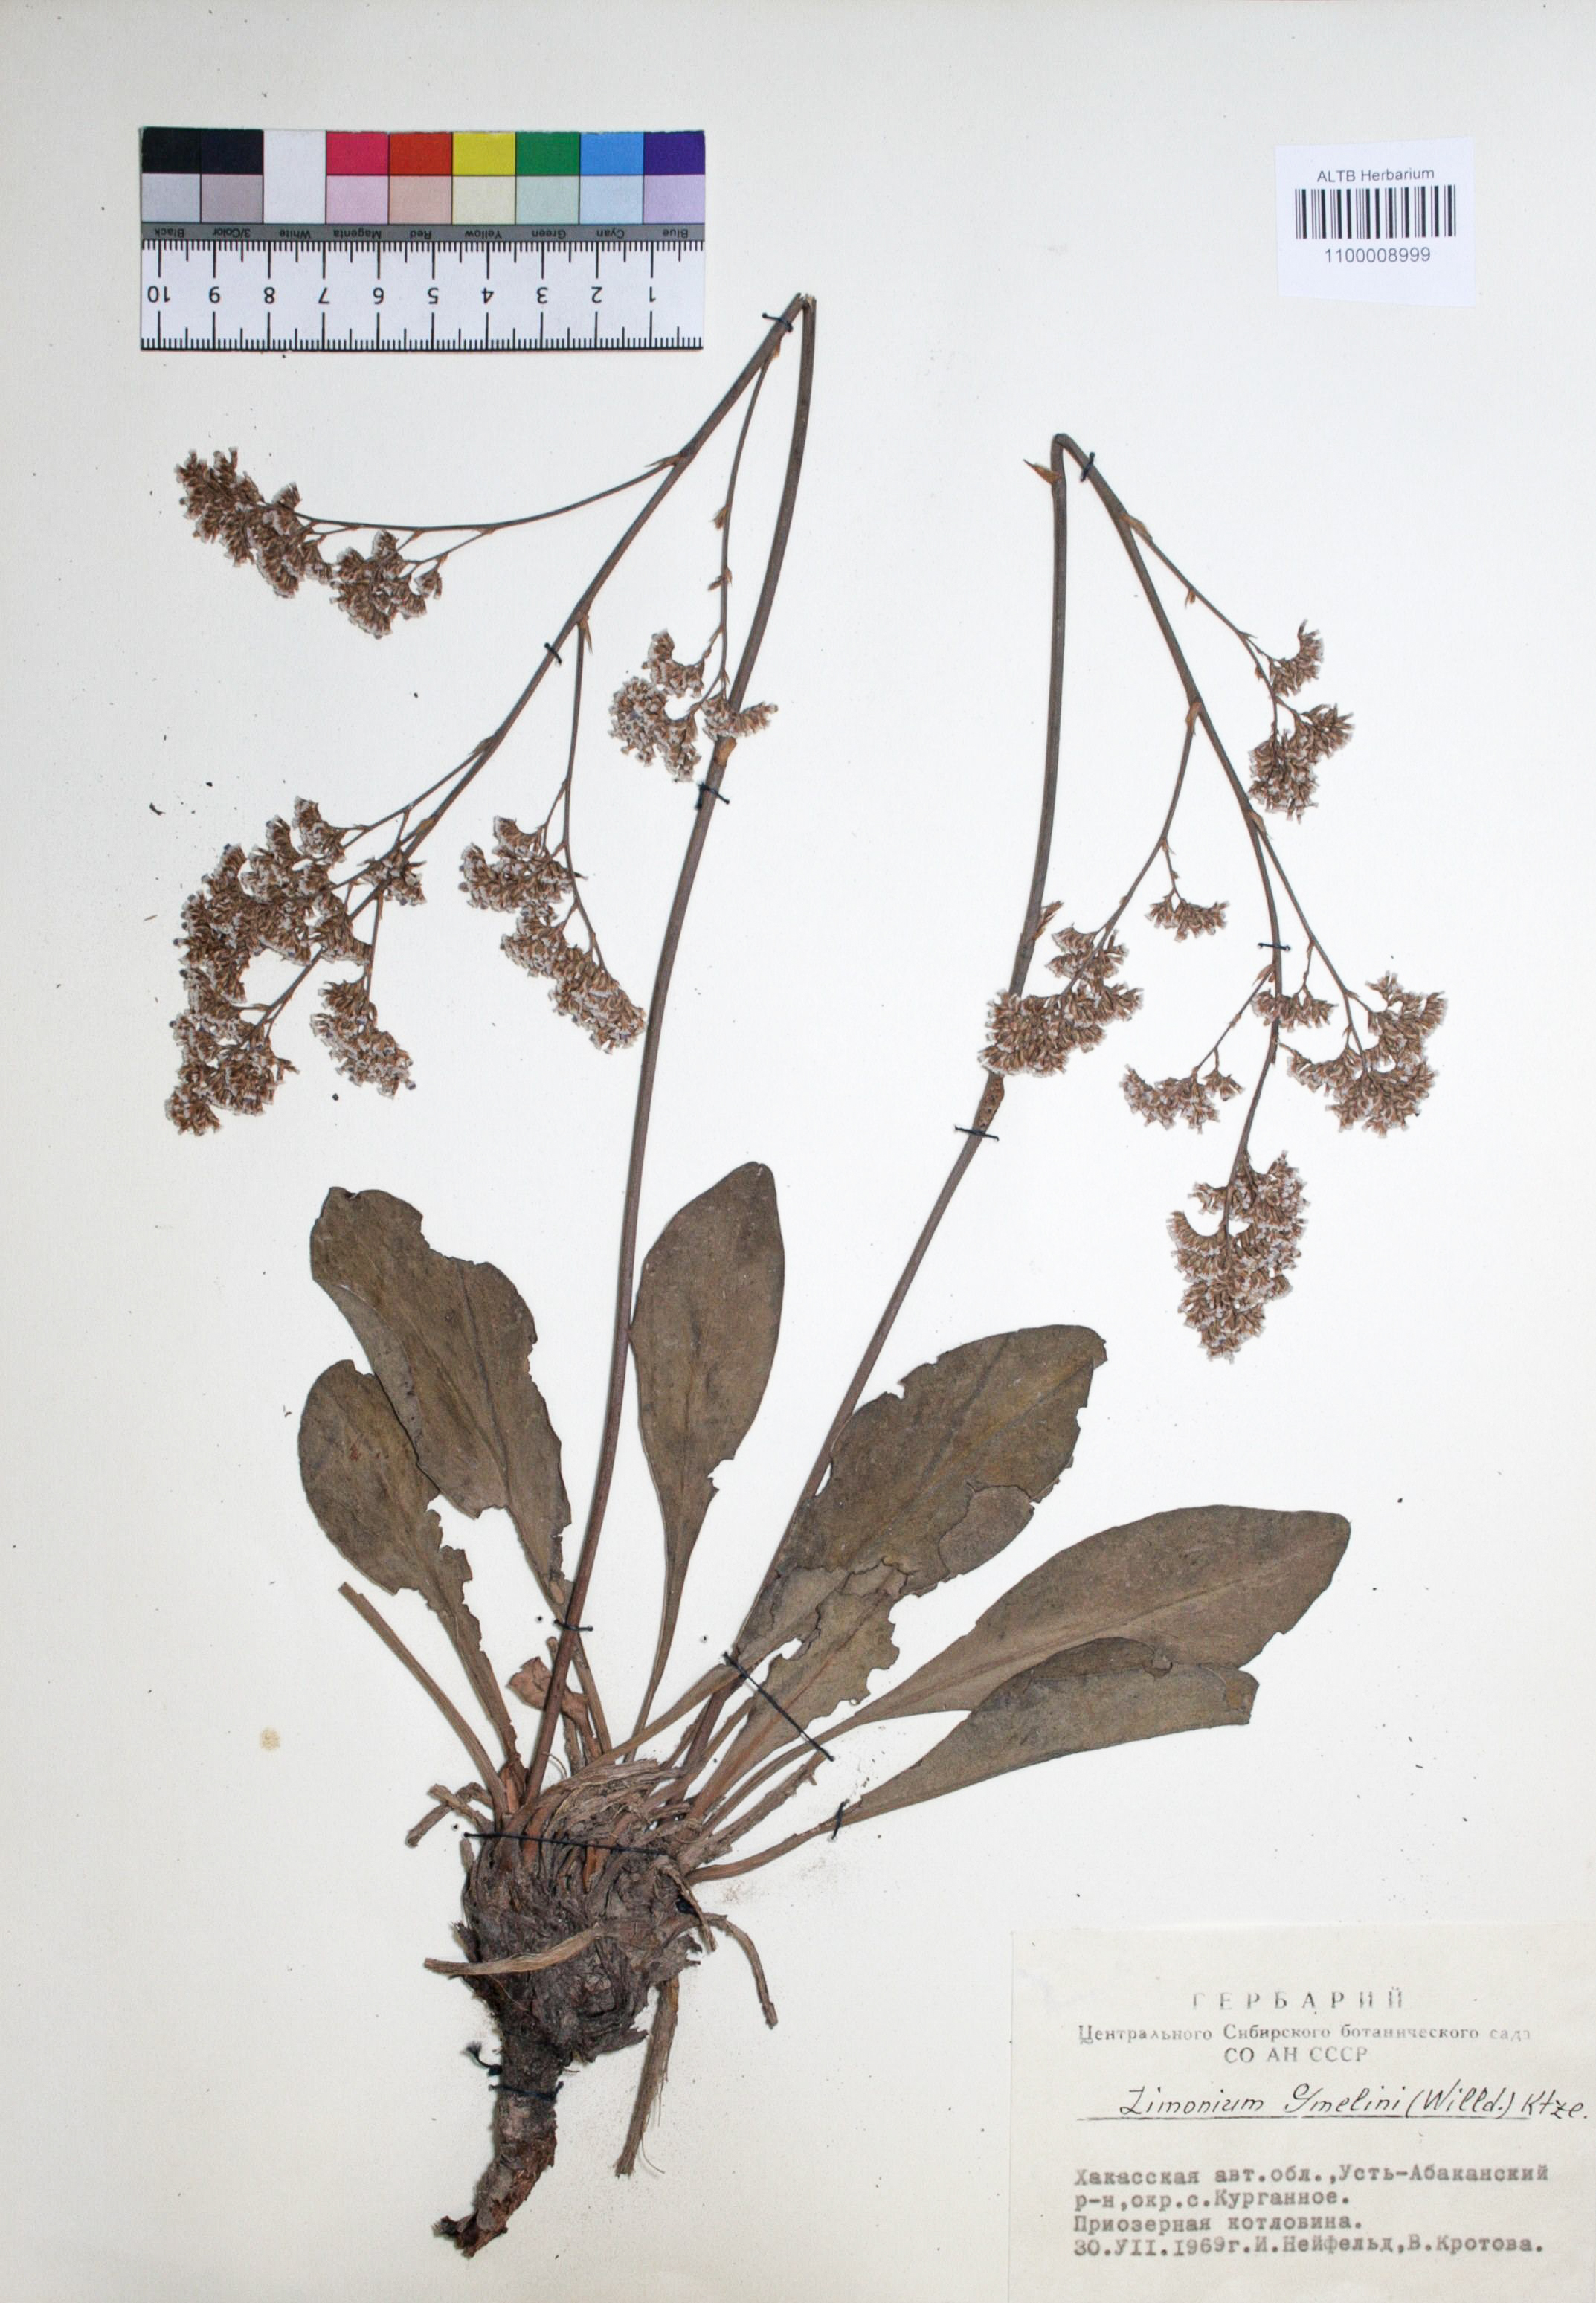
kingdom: Plantae
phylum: Tracheophyta
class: Magnoliopsida
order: Caryophyllales
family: Plumbaginaceae
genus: Limonium
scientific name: Limonium gmelini
